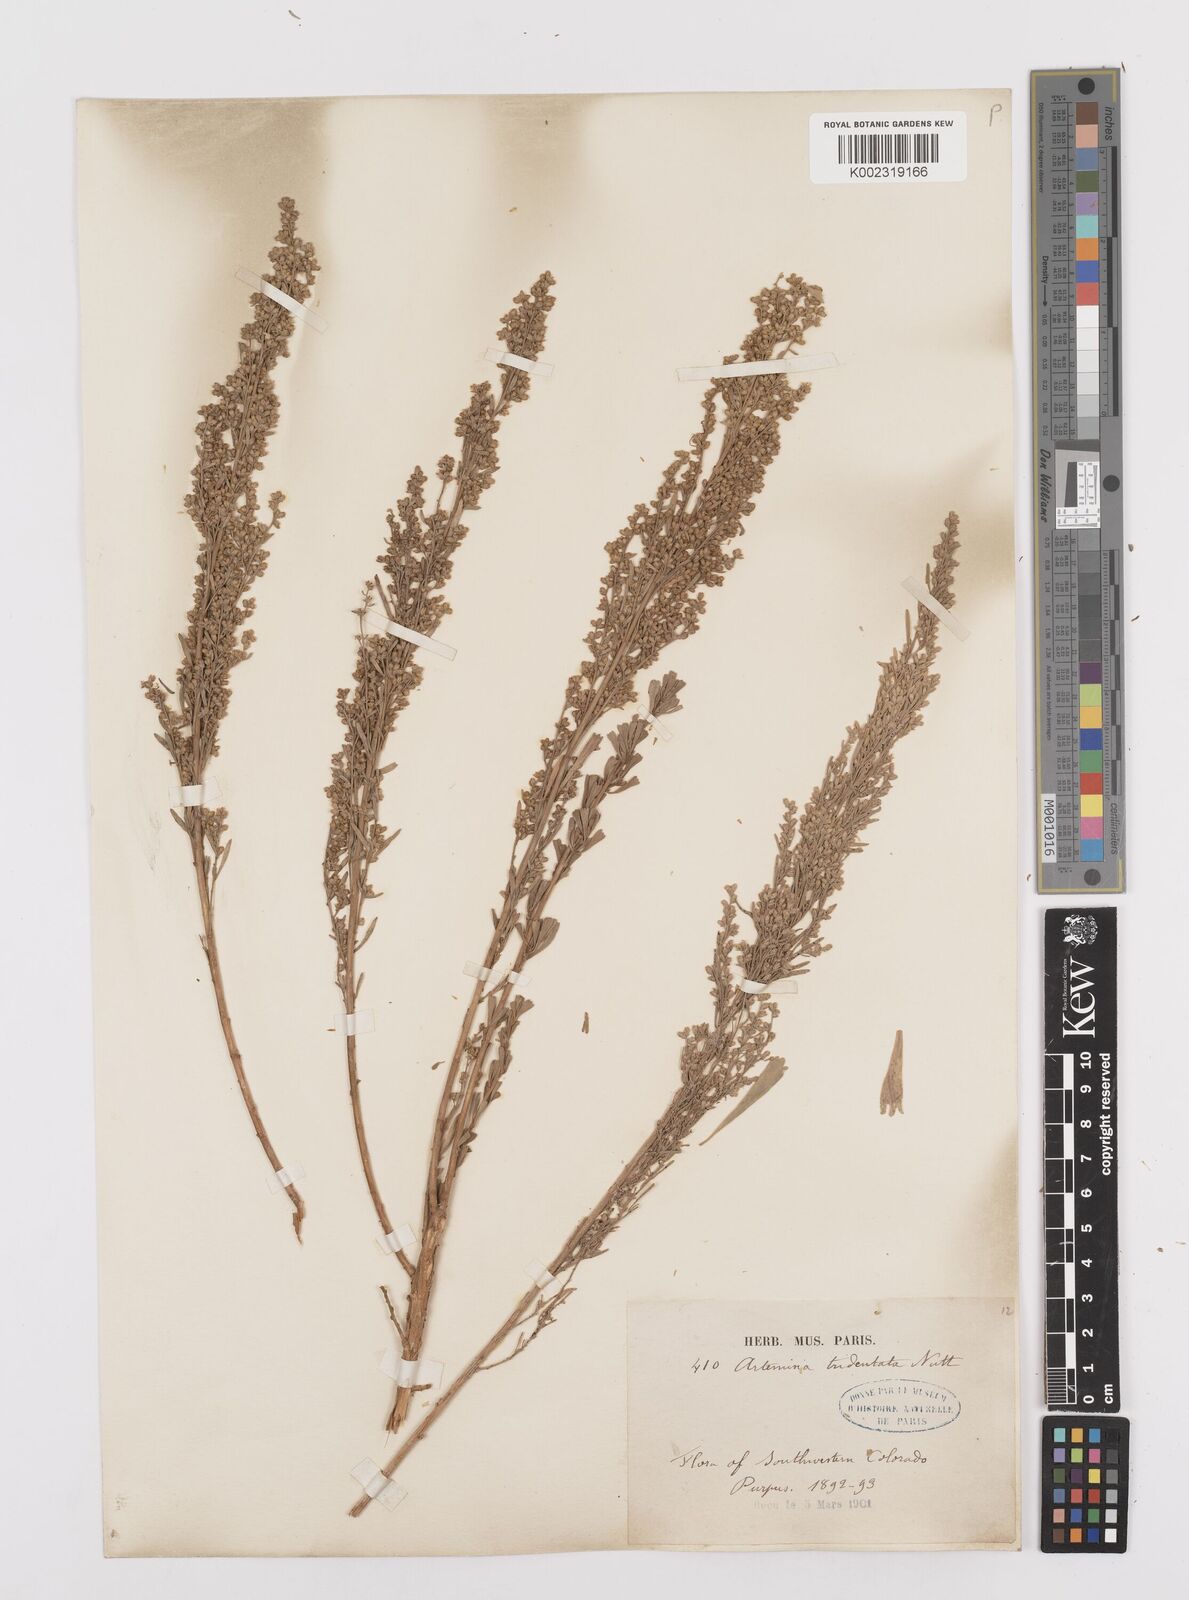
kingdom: Plantae
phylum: Tracheophyta
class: Magnoliopsida
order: Asterales
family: Asteraceae
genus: Artemisia
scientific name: Artemisia tridentata
